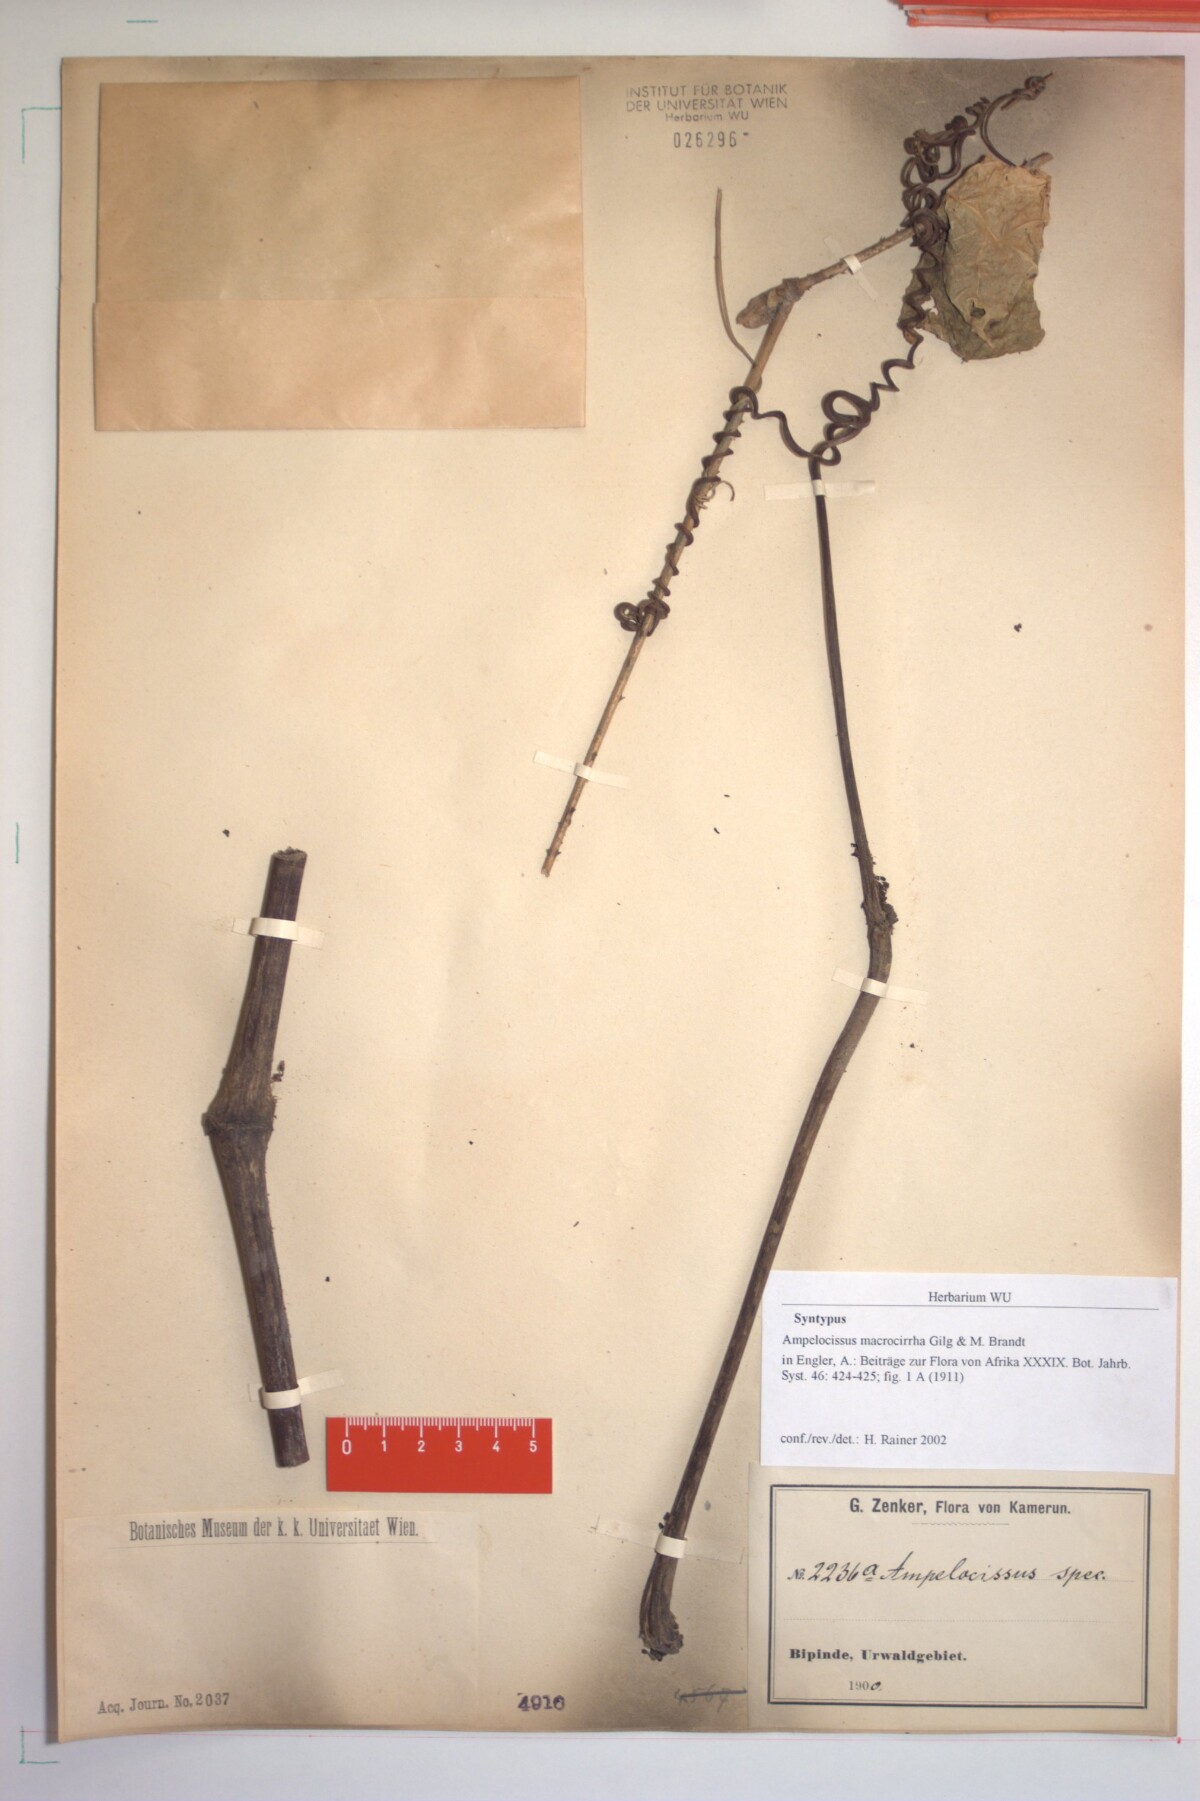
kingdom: Plantae
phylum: Tracheophyta
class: Magnoliopsida
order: Vitales
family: Vitaceae
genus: Ampelocissus
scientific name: Ampelocissus macrocirrha
